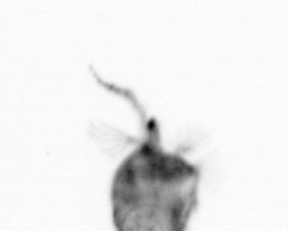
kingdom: Animalia
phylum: Arthropoda
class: Copepoda
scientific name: Copepoda
